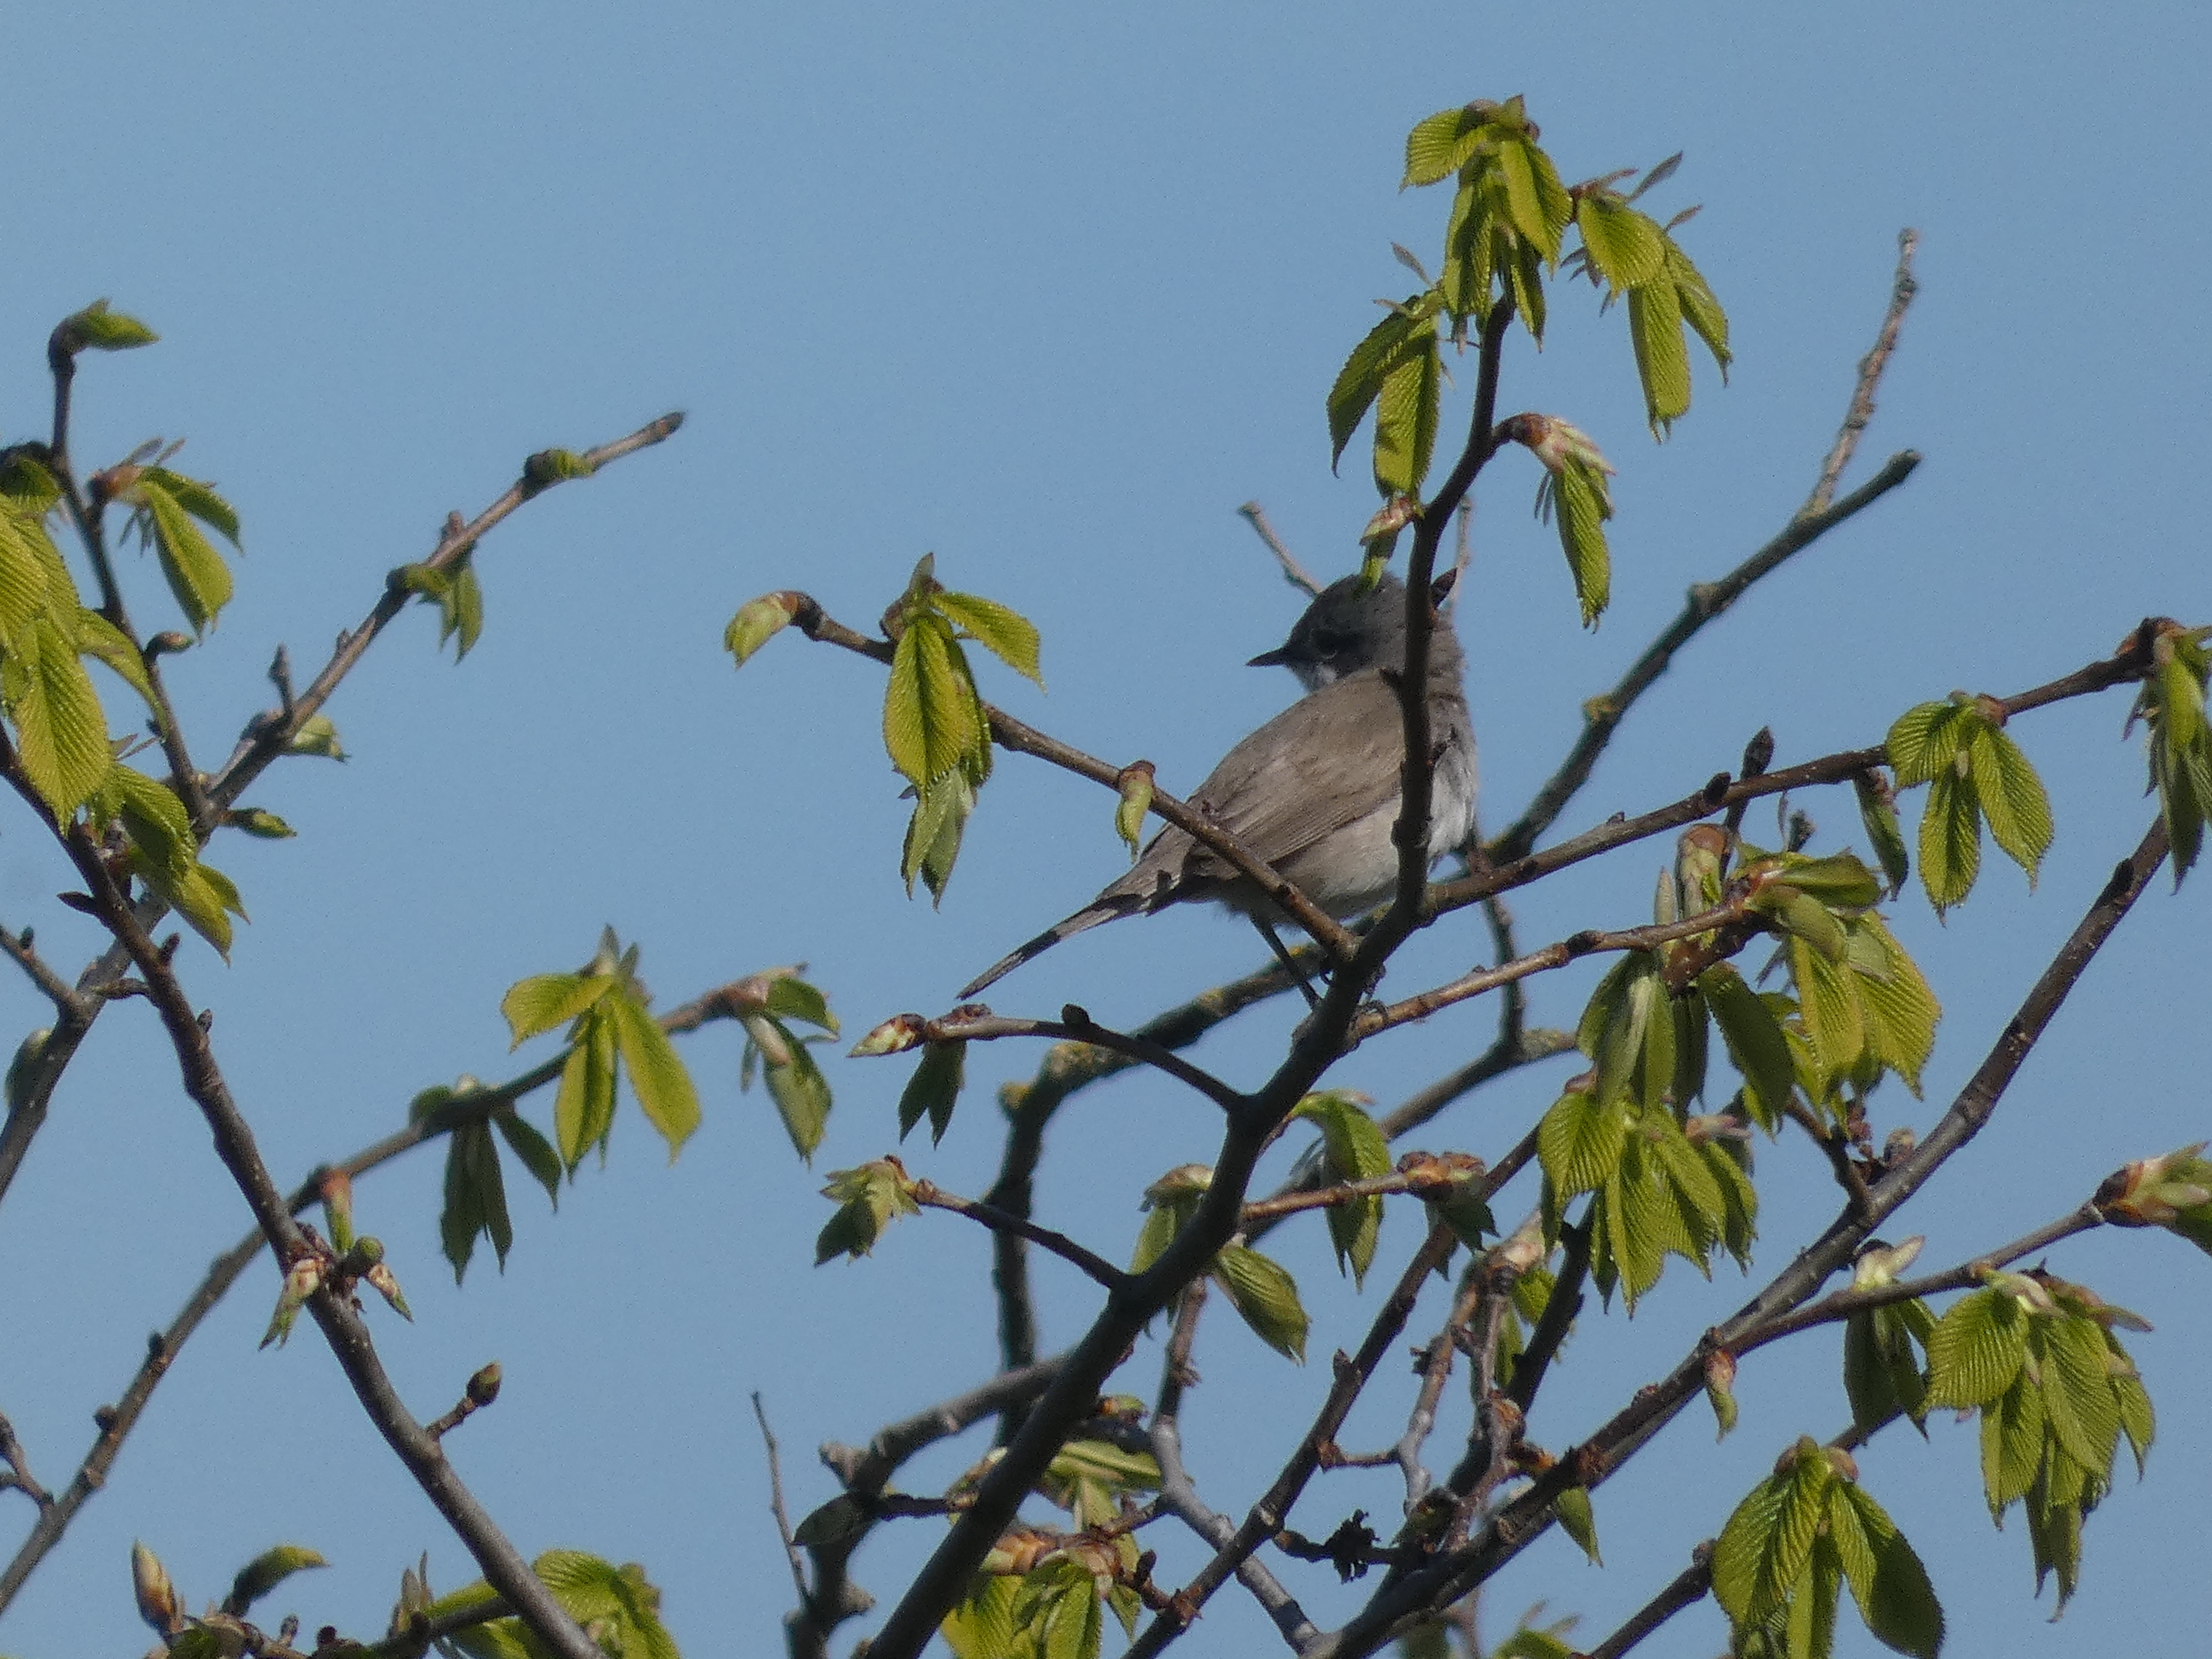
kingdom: Animalia
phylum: Chordata
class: Aves
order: Passeriformes
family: Sylviidae
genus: Sylvia
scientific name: Sylvia curruca
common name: Gærdesanger
